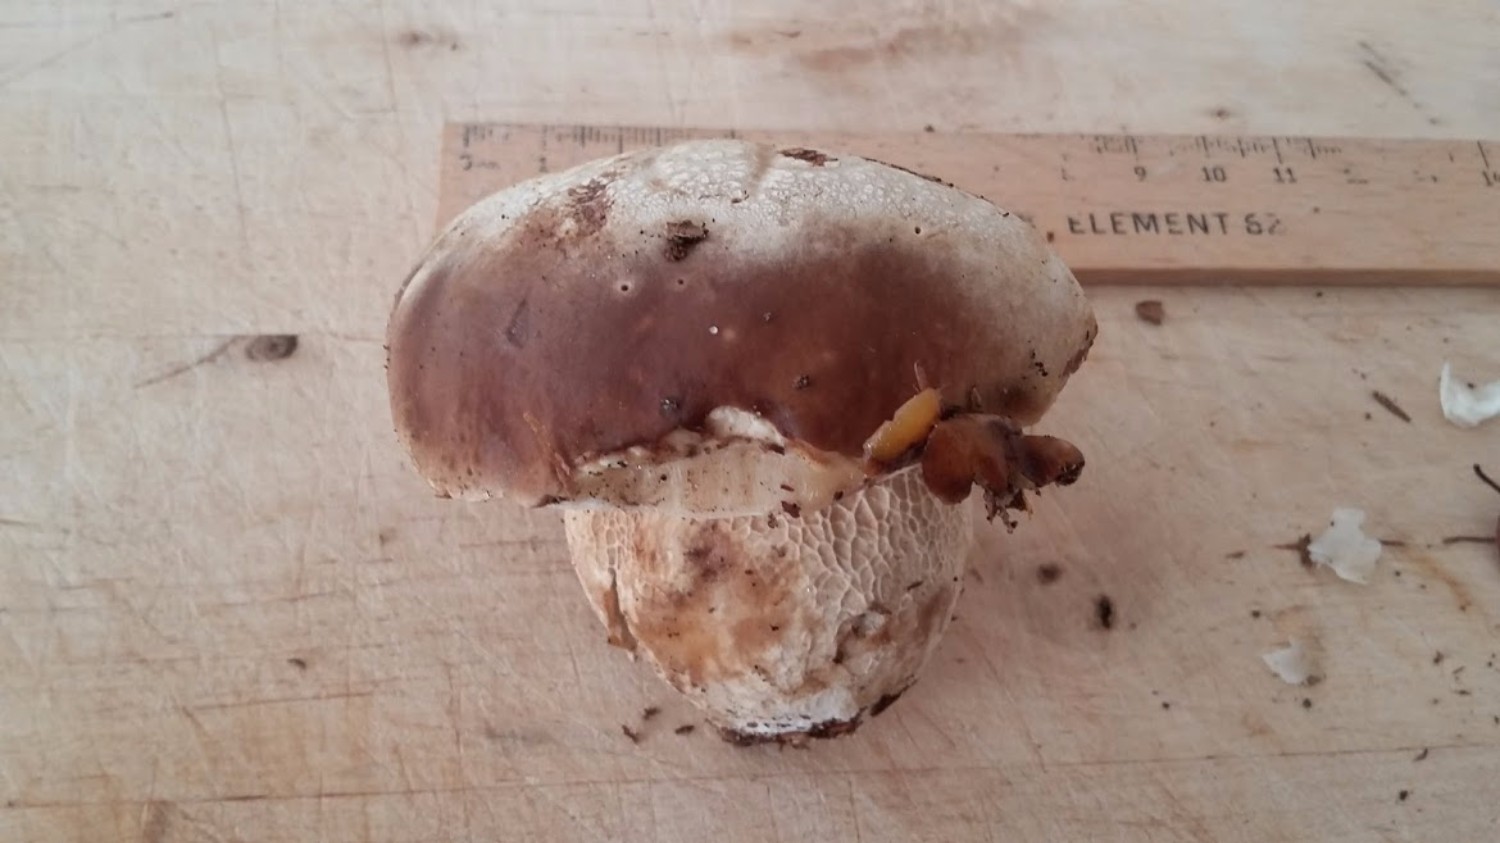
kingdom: Fungi
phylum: Basidiomycota
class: Agaricomycetes
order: Boletales
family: Boletaceae
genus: Boletus
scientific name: Boletus edulis
